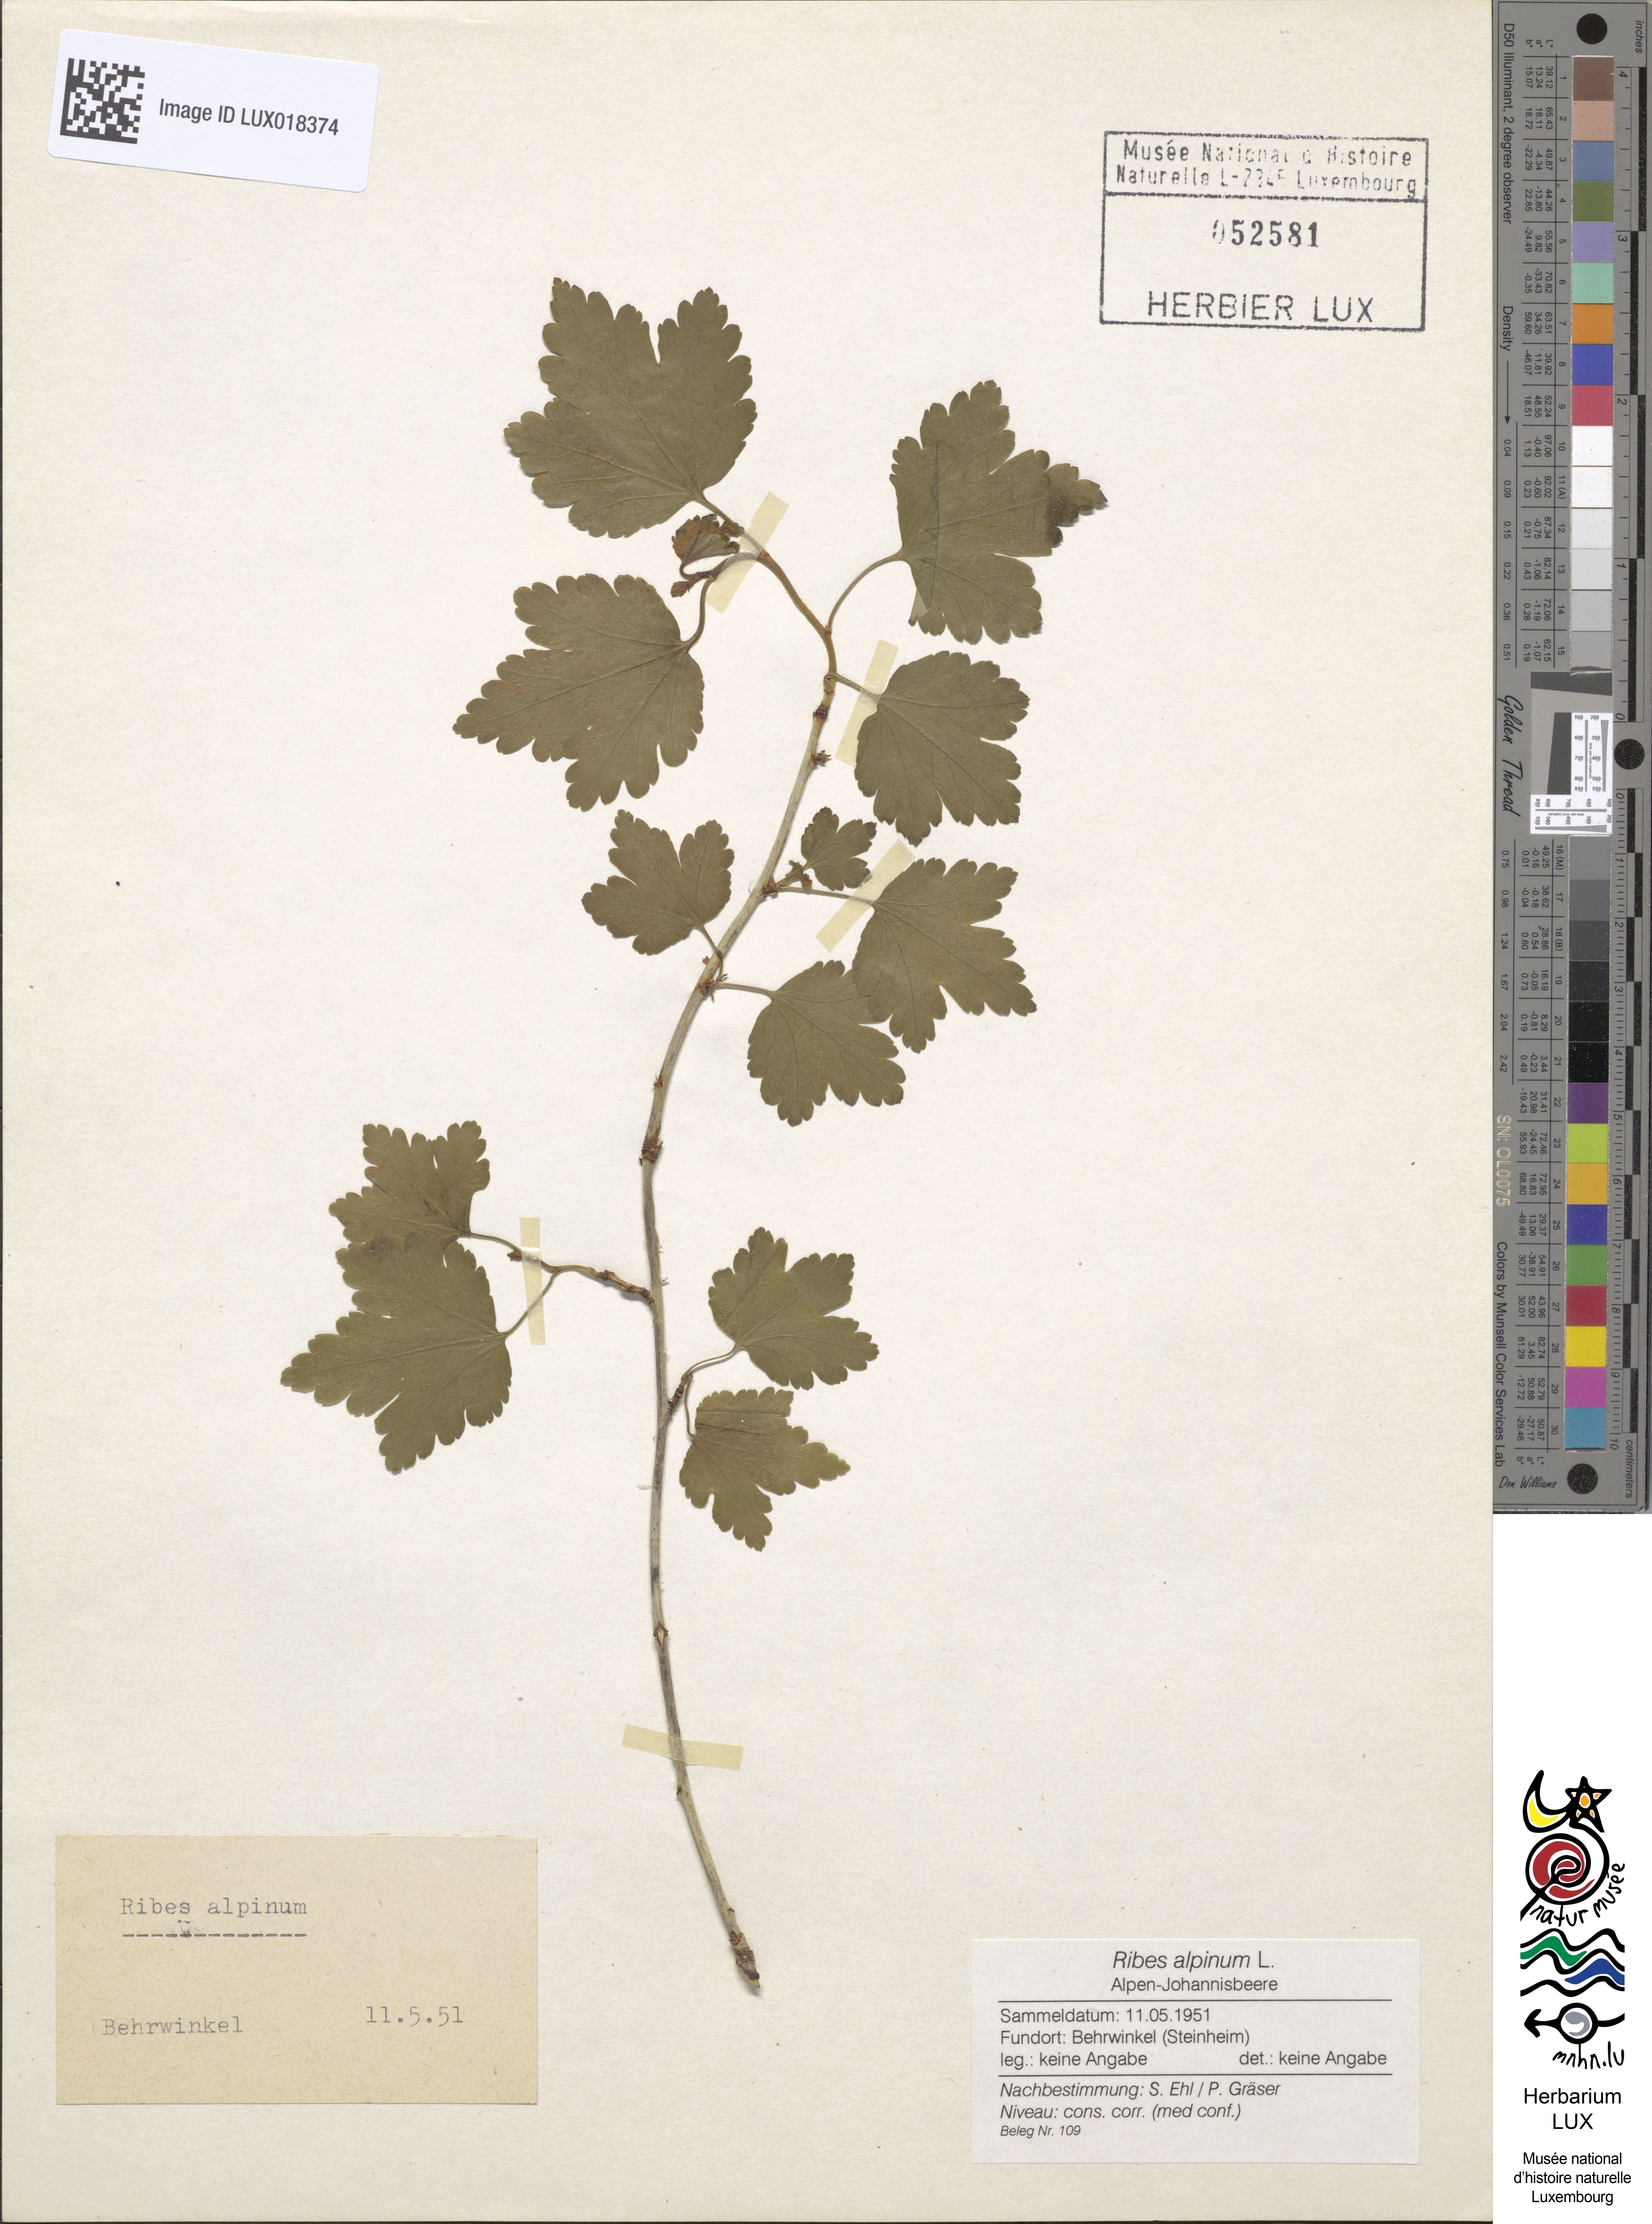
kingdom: Plantae
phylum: Tracheophyta
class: Magnoliopsida
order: Saxifragales
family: Grossulariaceae
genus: Ribes
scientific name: Ribes alpinum
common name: Alpine currant
